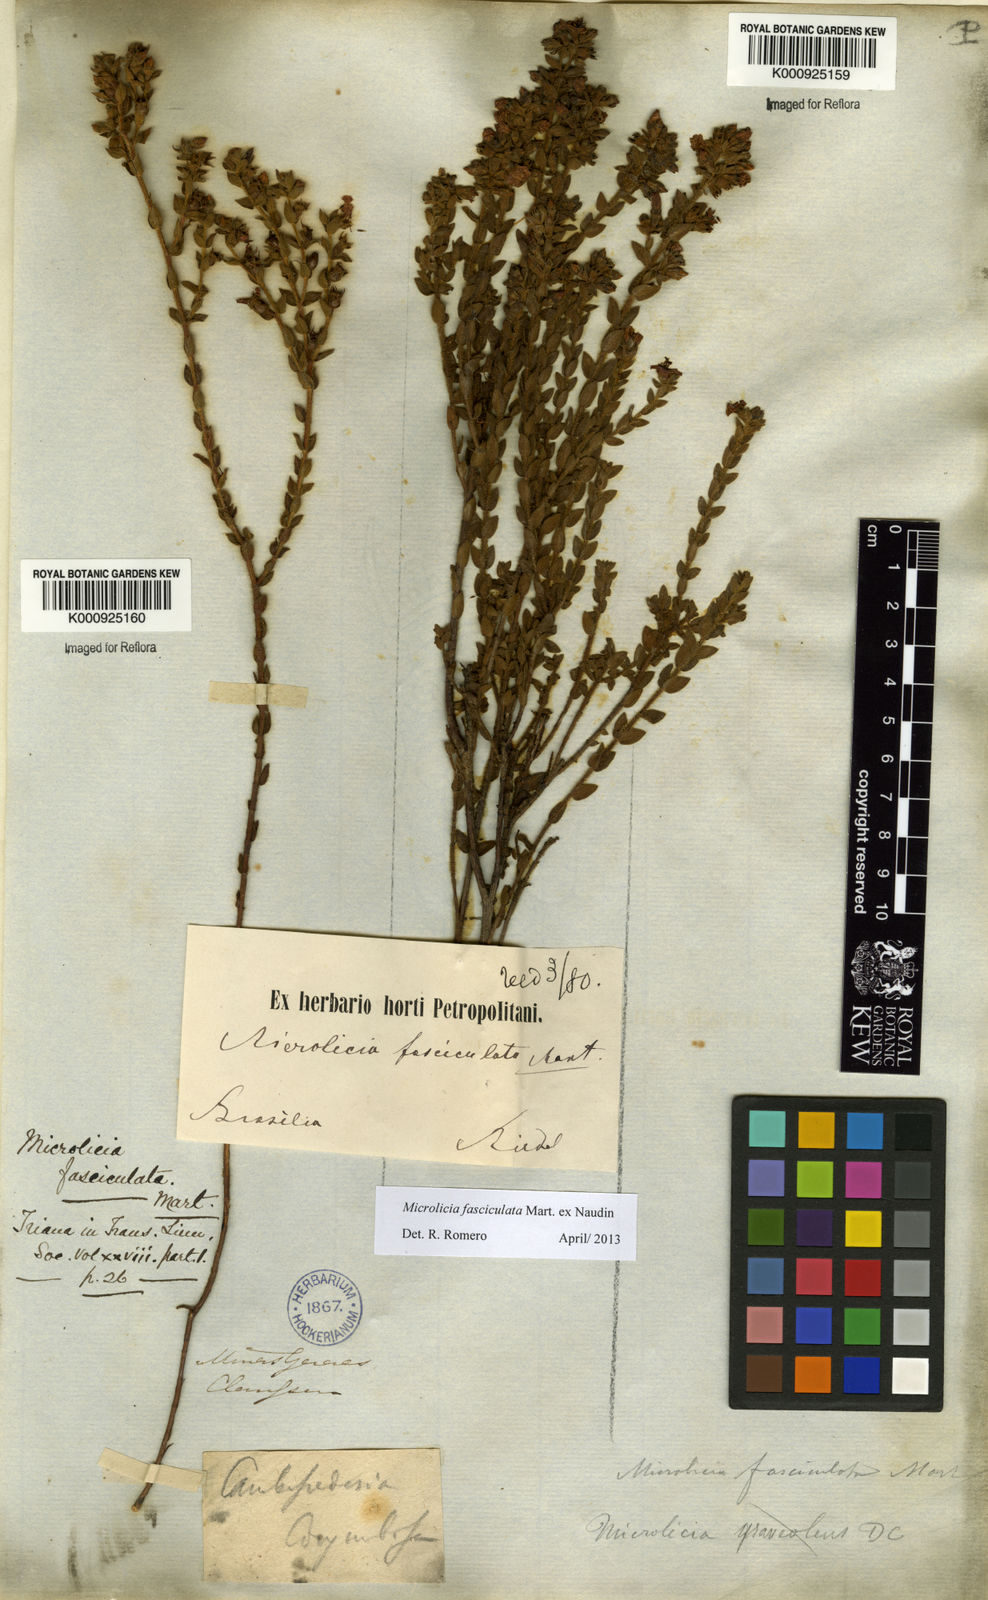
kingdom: Plantae
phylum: Tracheophyta
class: Magnoliopsida
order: Myrtales
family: Melastomataceae
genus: Microlicia
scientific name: Microlicia fasciculata
